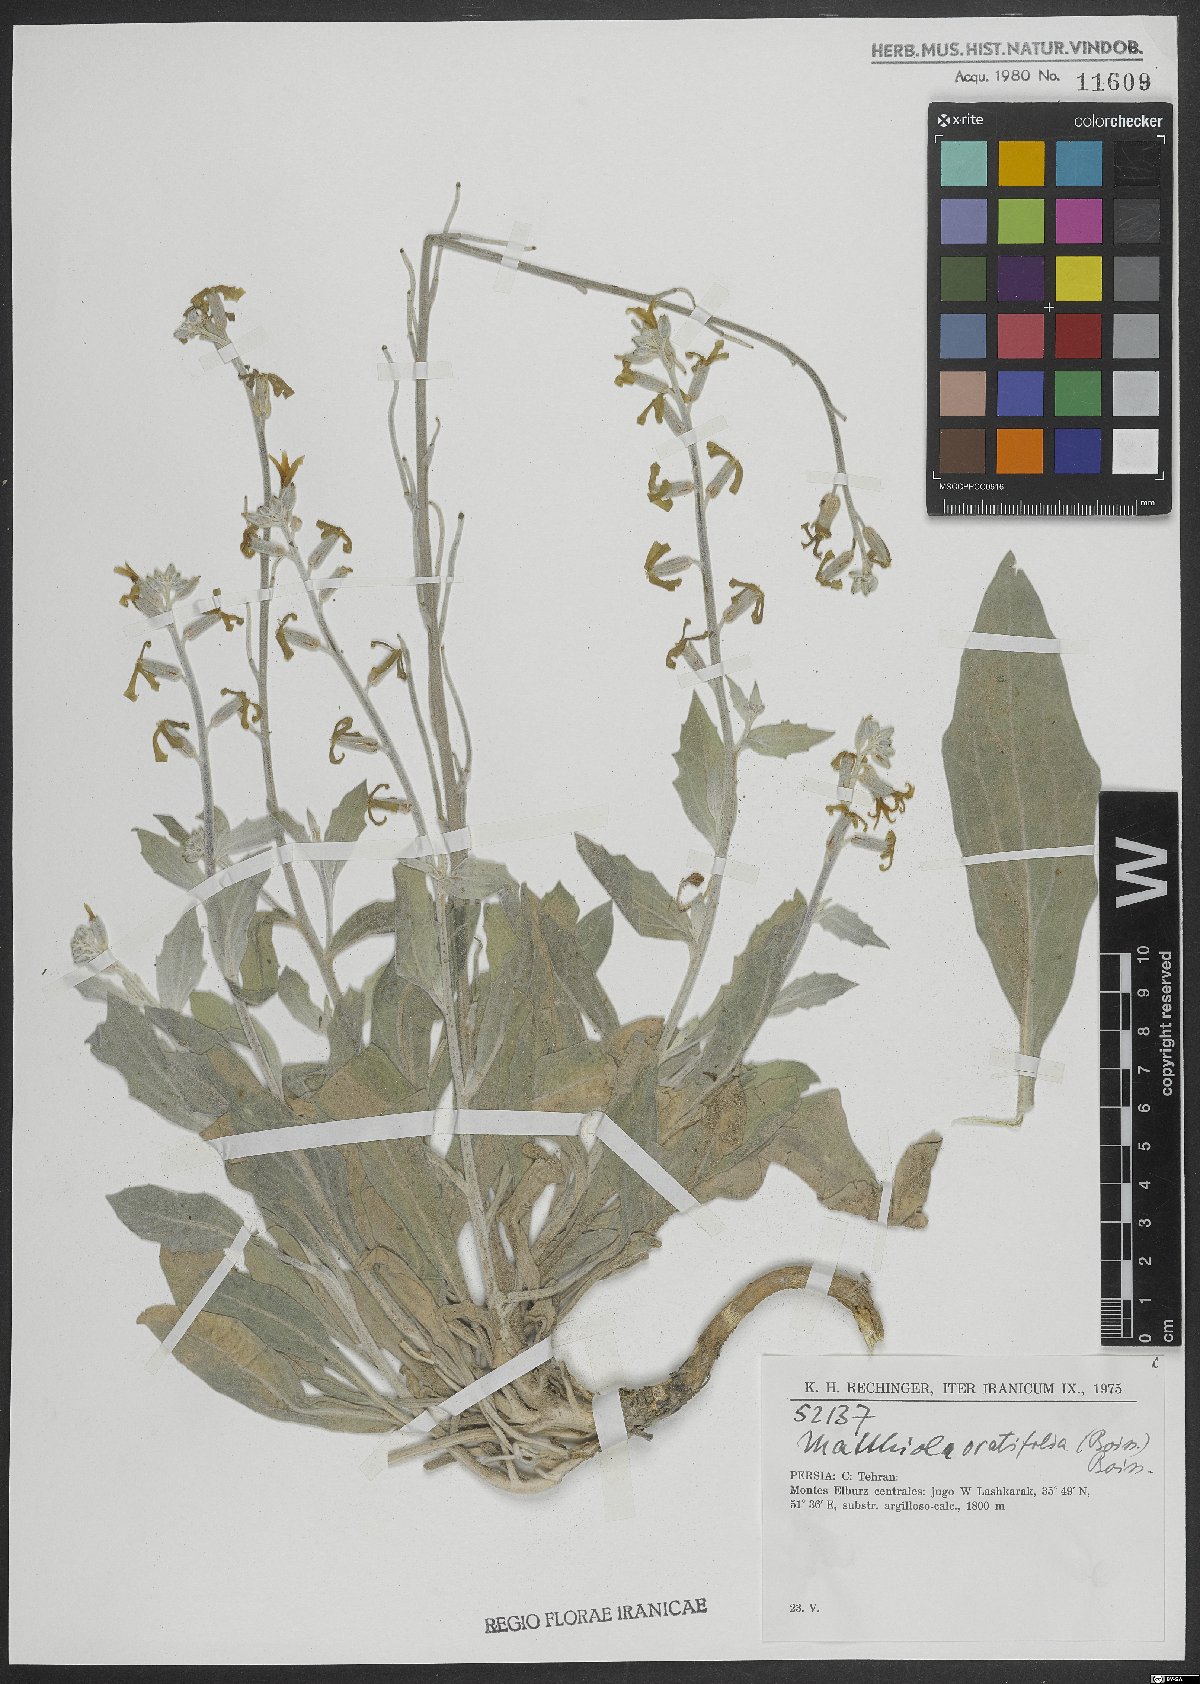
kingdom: Plantae
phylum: Tracheophyta
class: Magnoliopsida
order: Brassicales
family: Brassicaceae
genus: Matthiola
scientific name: Matthiola ovatifolia
